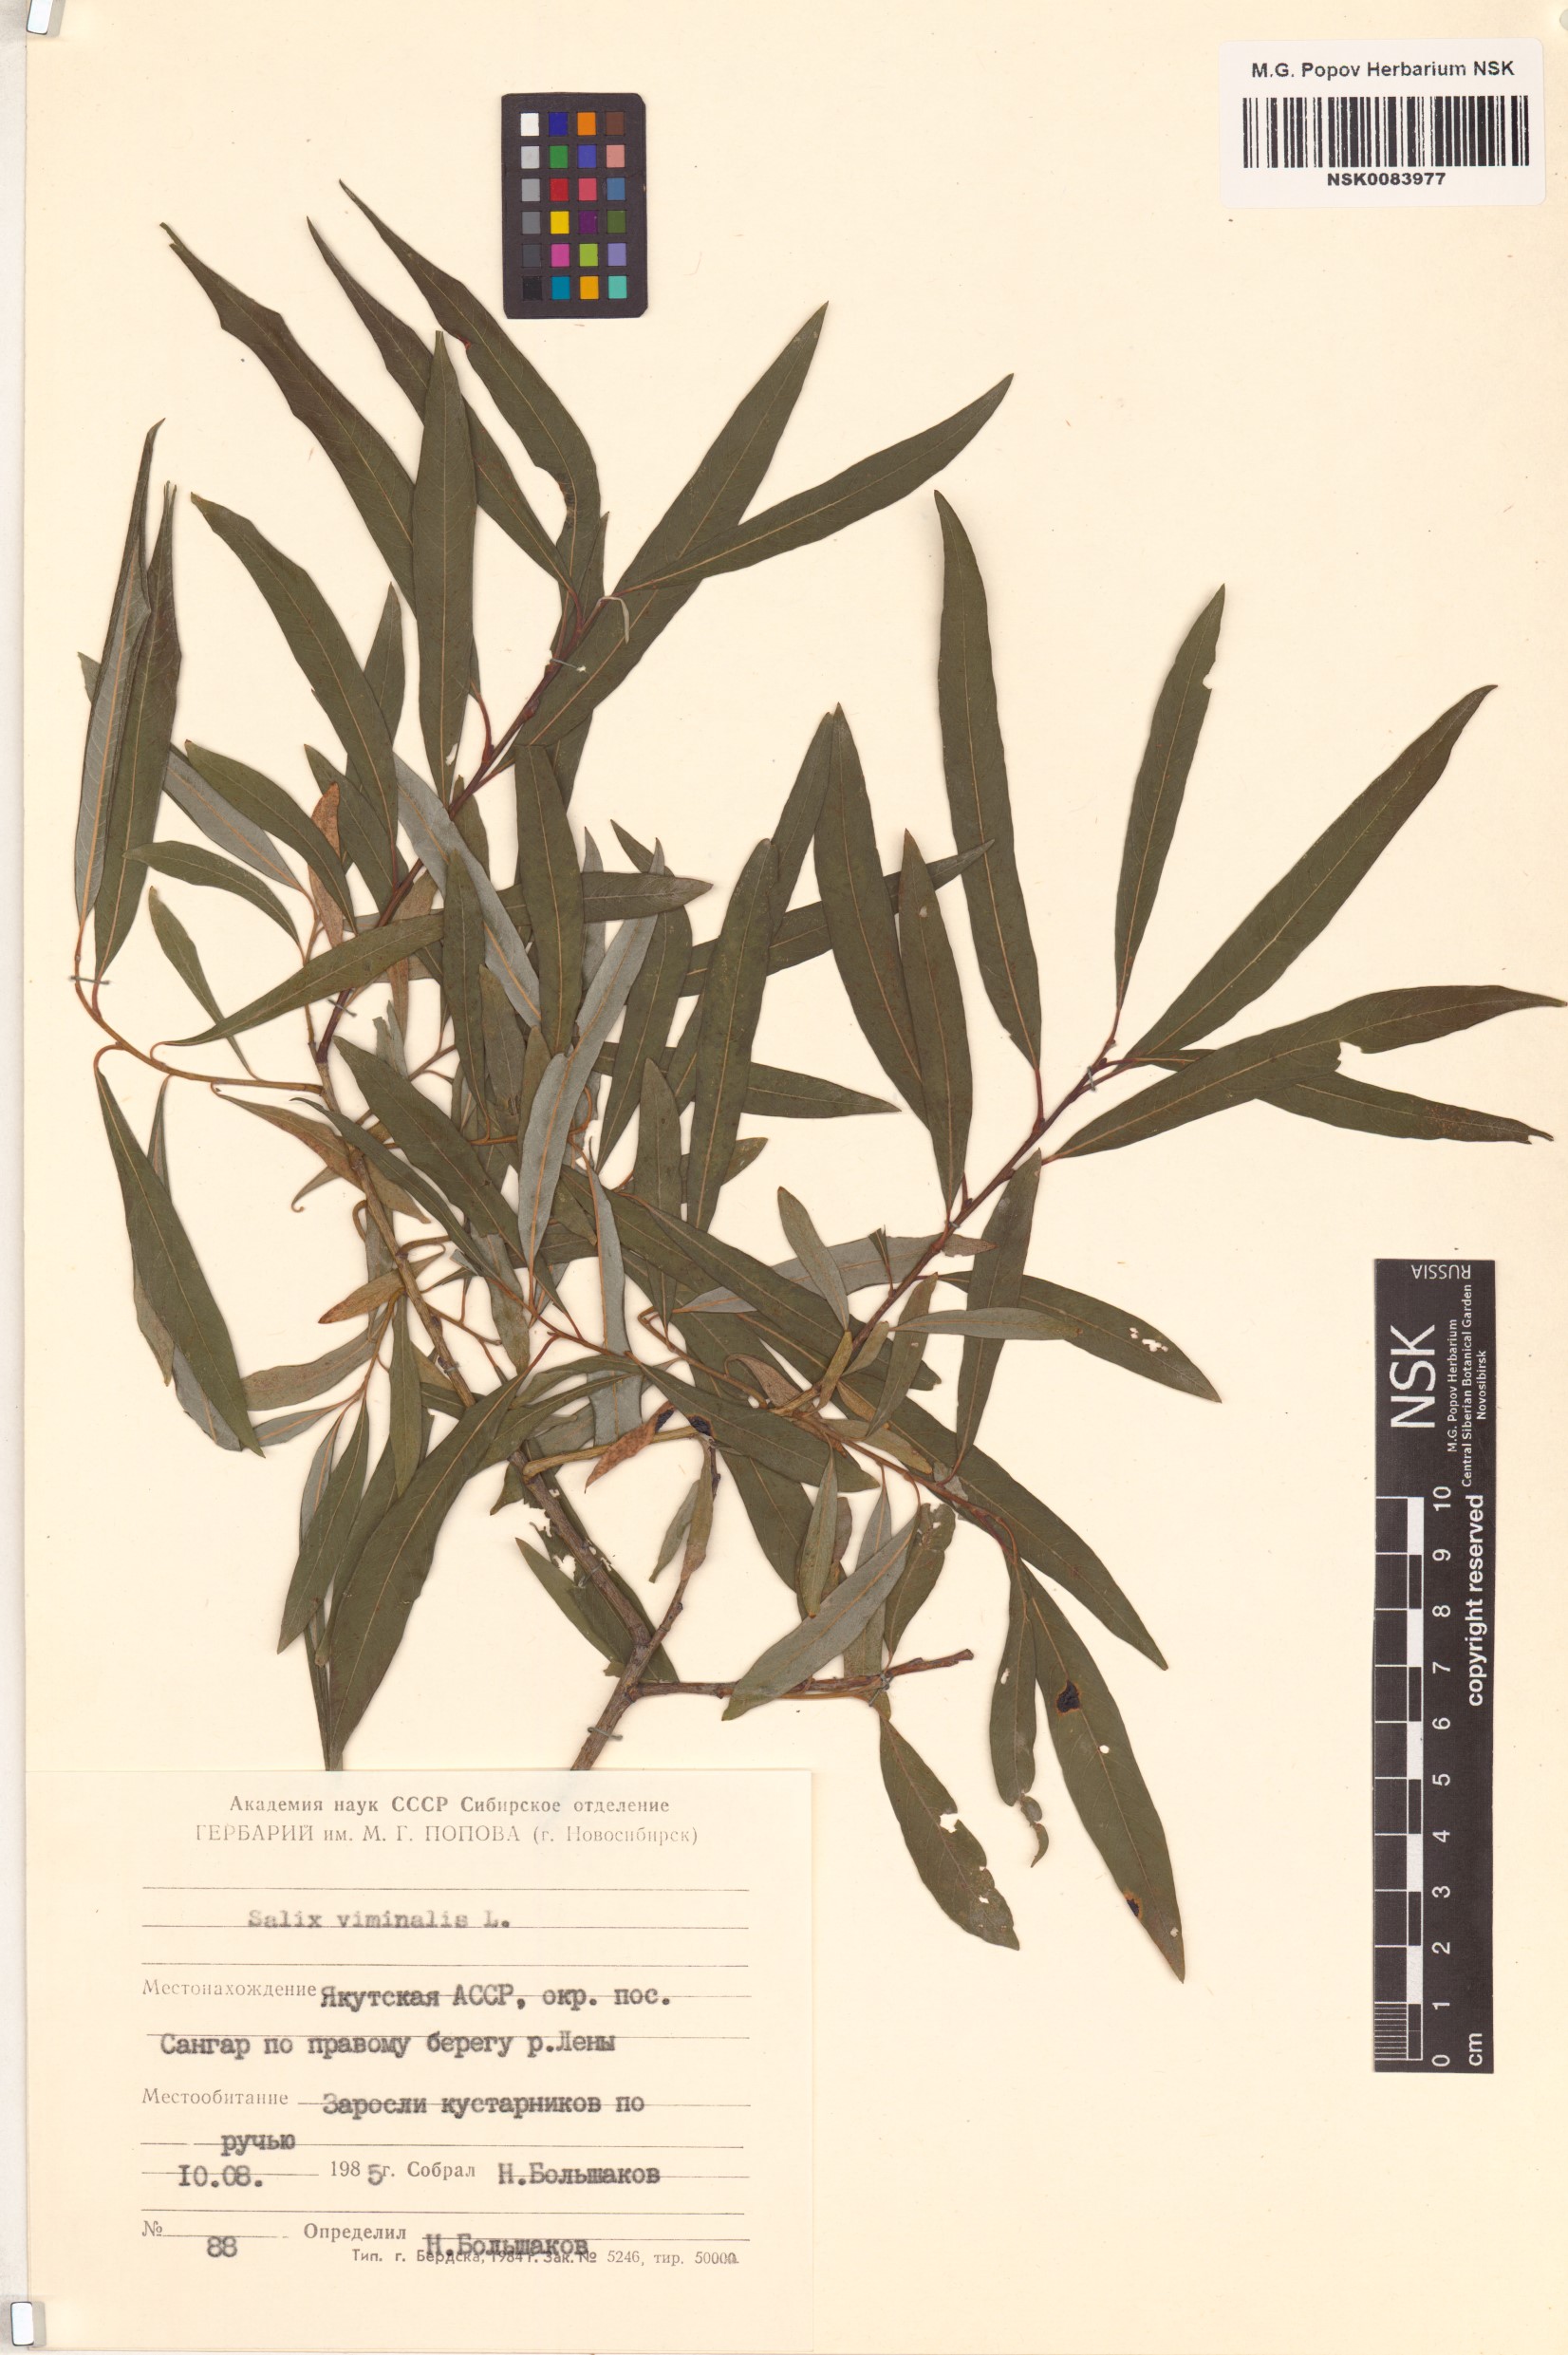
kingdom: Plantae
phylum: Tracheophyta
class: Magnoliopsida
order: Malpighiales
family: Salicaceae
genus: Salix
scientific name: Salix viminalis
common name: Osier
